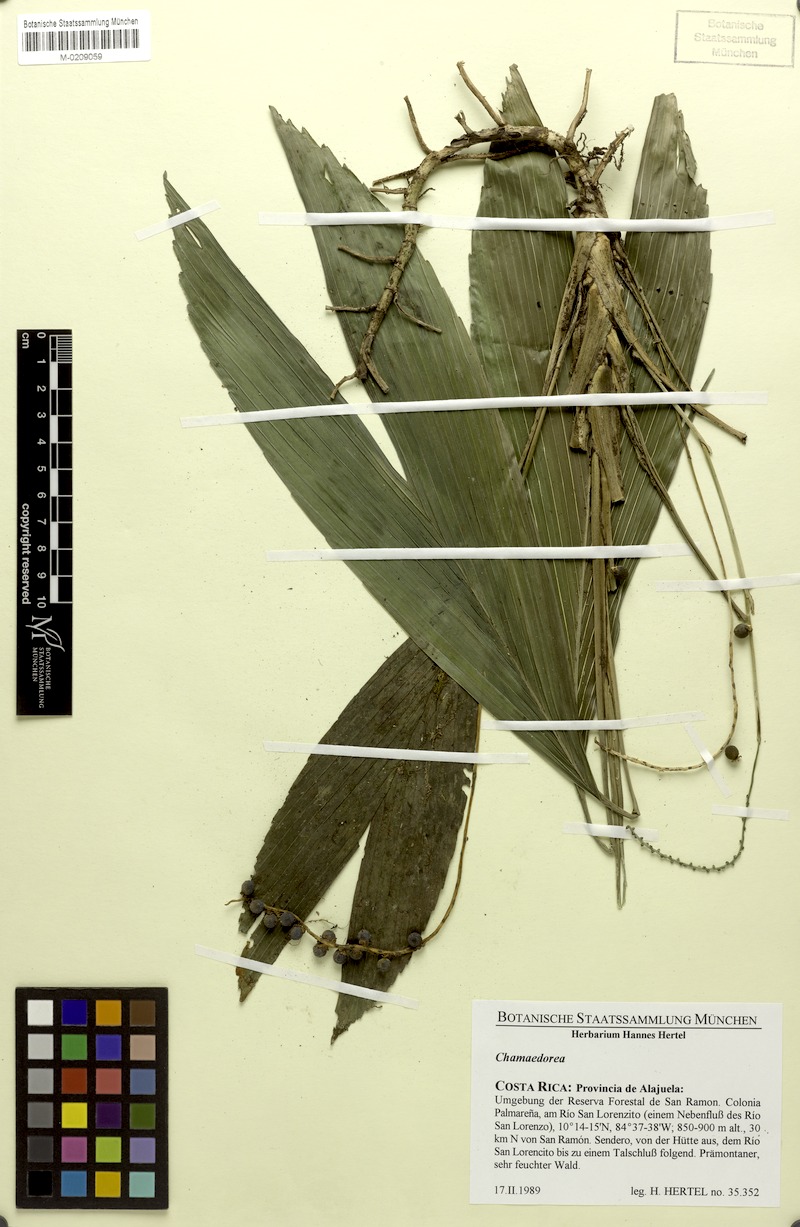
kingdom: Plantae
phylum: Tracheophyta
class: Liliopsida
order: Arecales
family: Arecaceae
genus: Chamaedorea
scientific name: Chamaedorea
